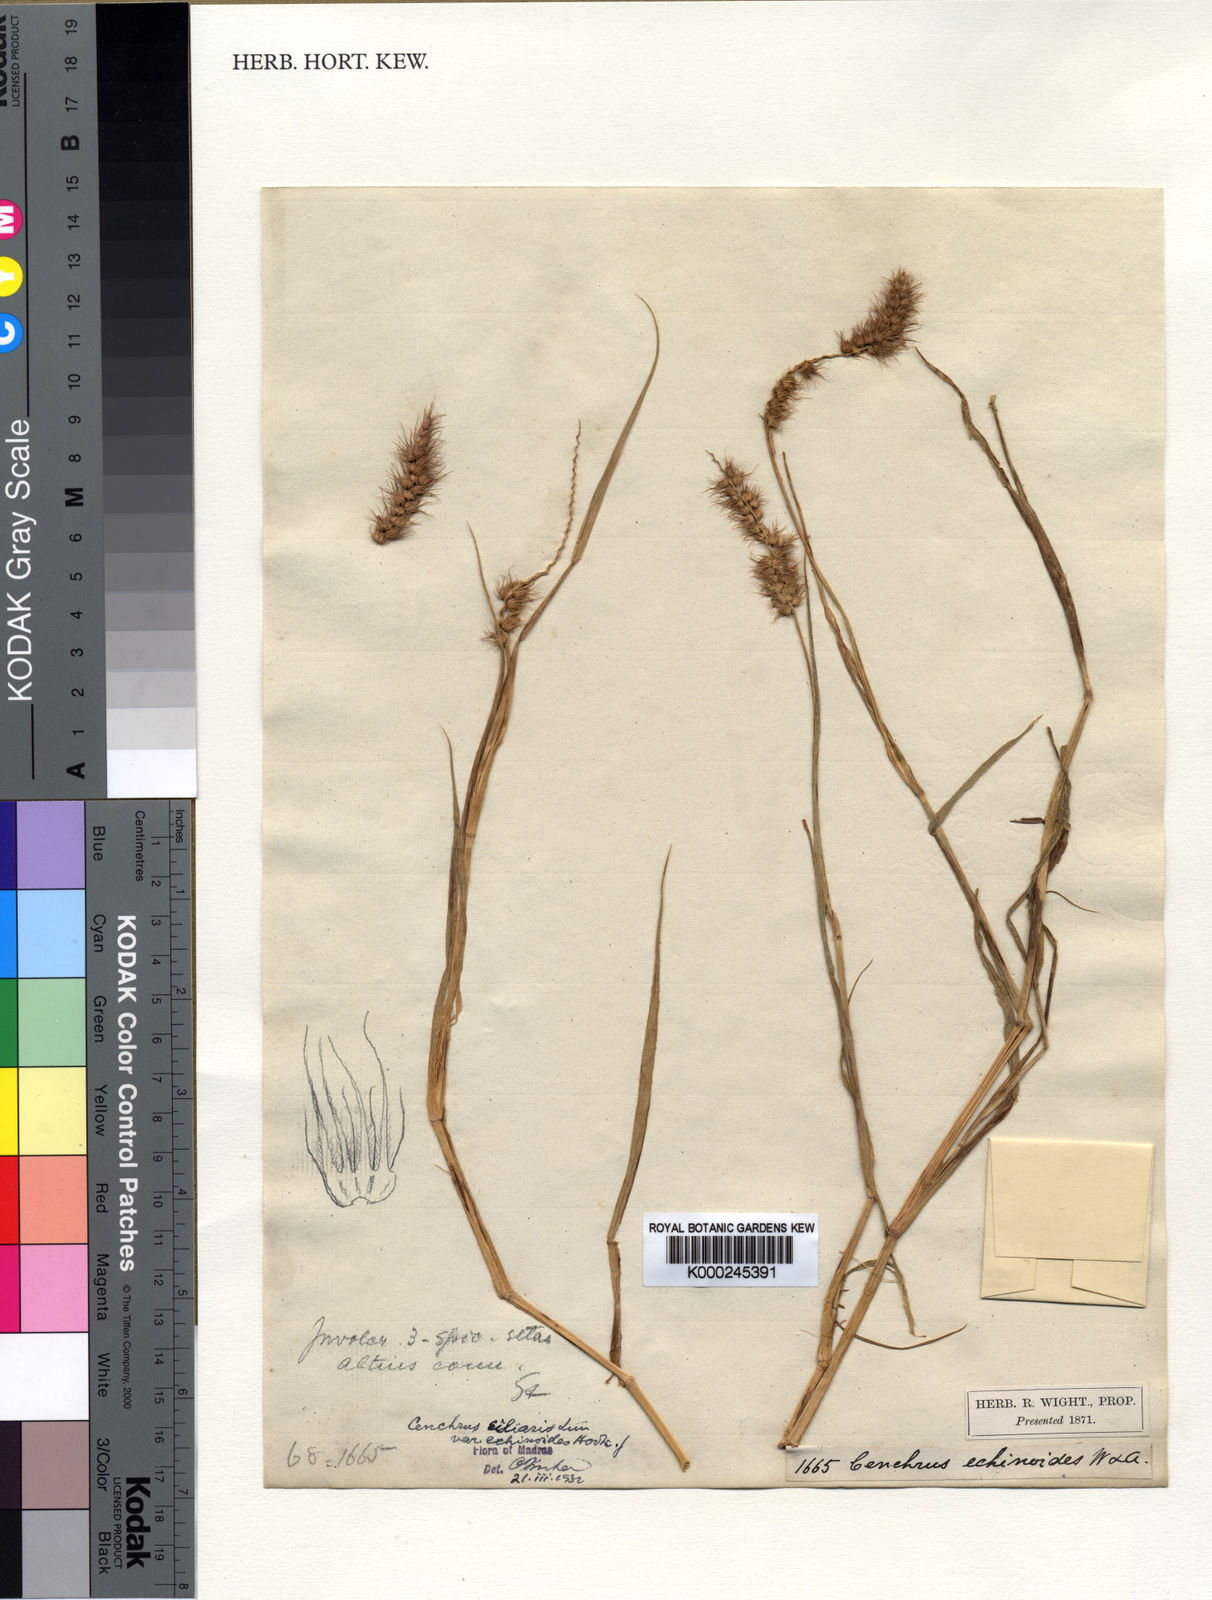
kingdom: Plantae
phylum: Tracheophyta
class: Liliopsida
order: Poales
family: Poaceae
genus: Cenchrus
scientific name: Cenchrus echinatus
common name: Southern sandbur
